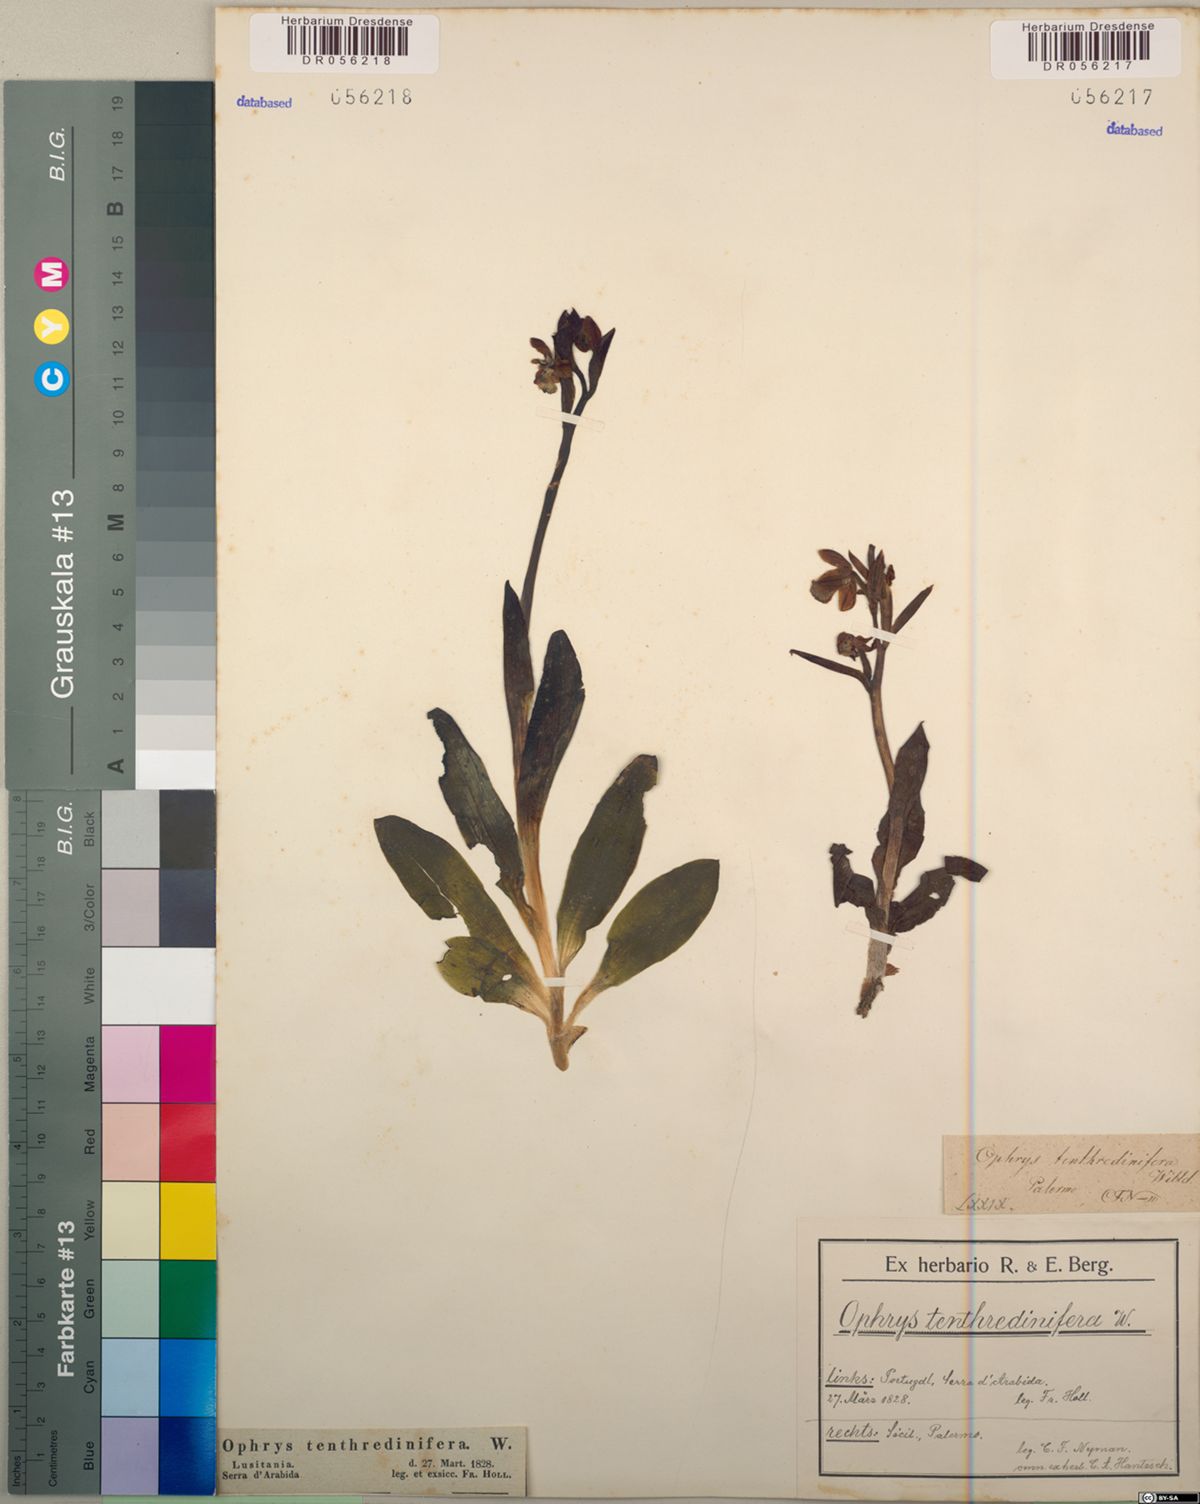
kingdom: Plantae
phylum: Tracheophyta
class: Liliopsida
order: Asparagales
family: Orchidaceae
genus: Ophrys
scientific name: Ophrys tenthredinifera
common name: Sawfly orchid
